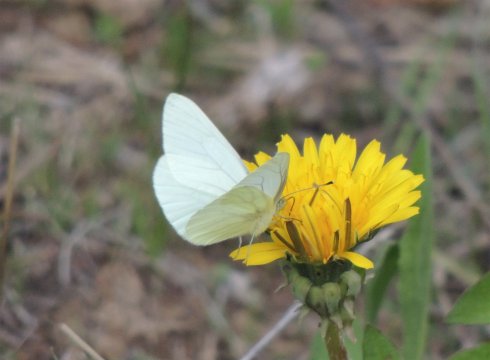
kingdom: Animalia
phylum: Arthropoda
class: Insecta
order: Lepidoptera
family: Pieridae
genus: Pieris
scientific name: Pieris marginalis
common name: Margined White
